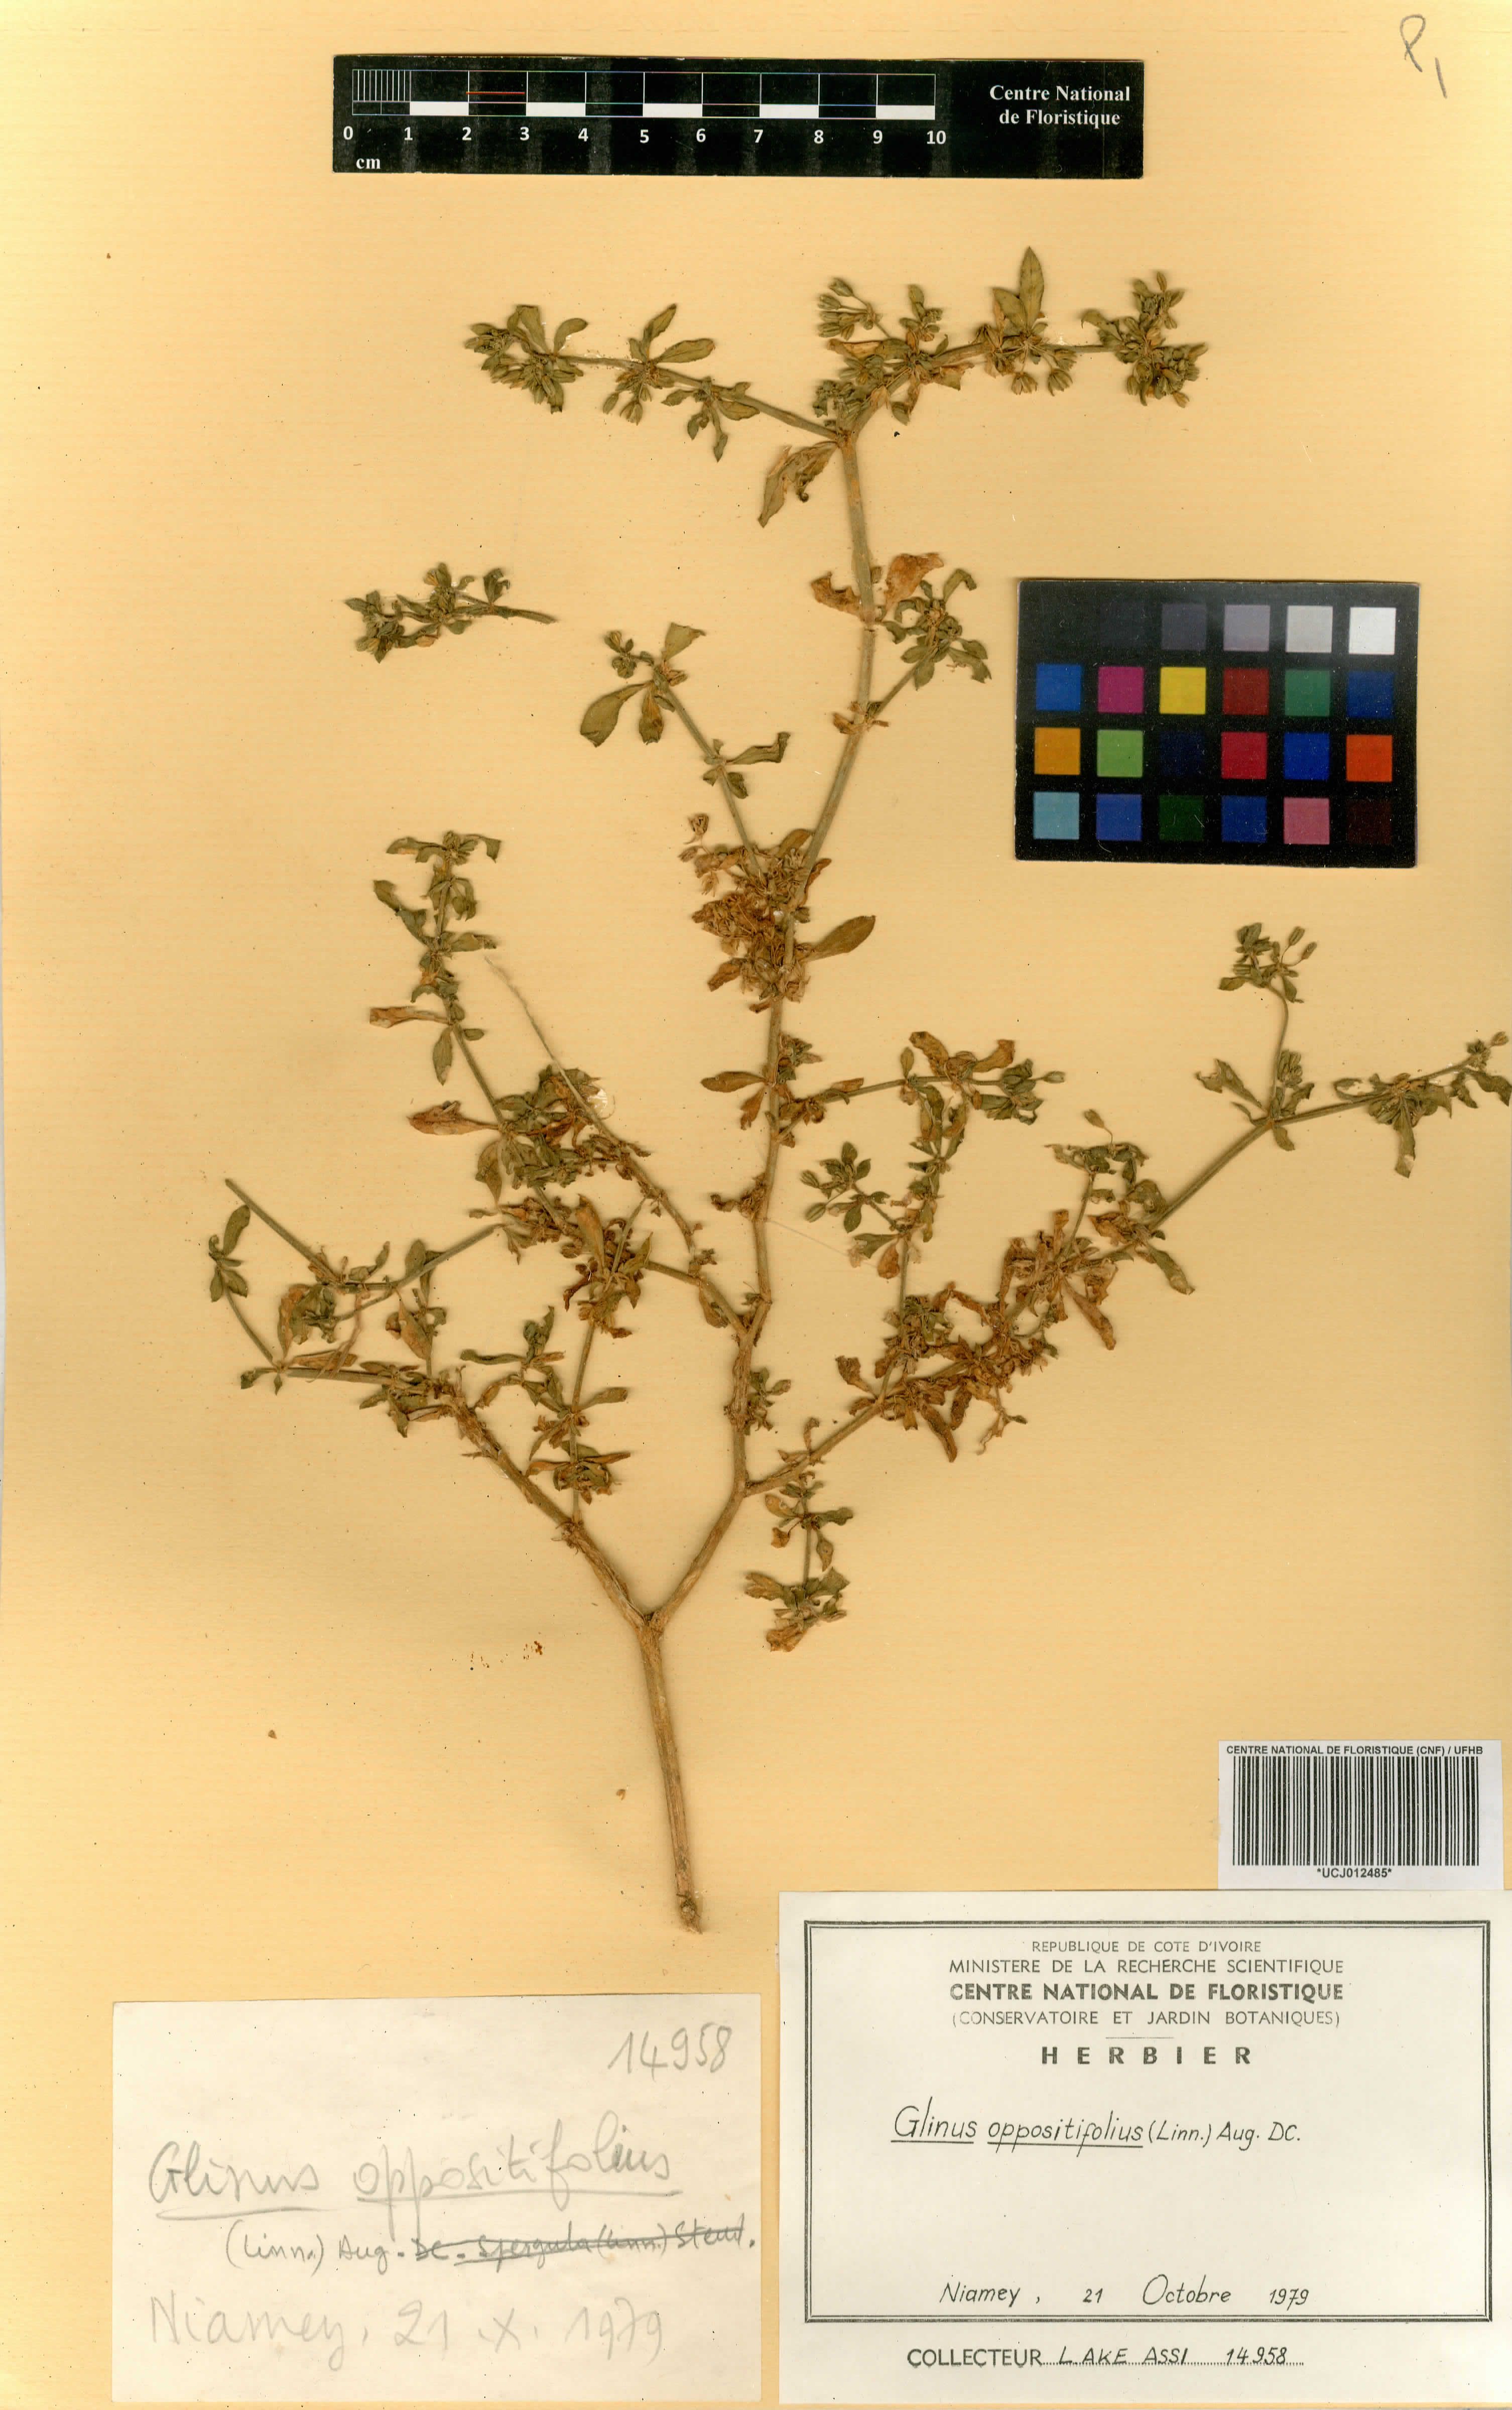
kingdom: Plantae
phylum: Tracheophyta
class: Magnoliopsida
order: Caryophyllales
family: Molluginaceae
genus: Glinus
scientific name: Glinus oppositifolius
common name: Slender carpetweed
